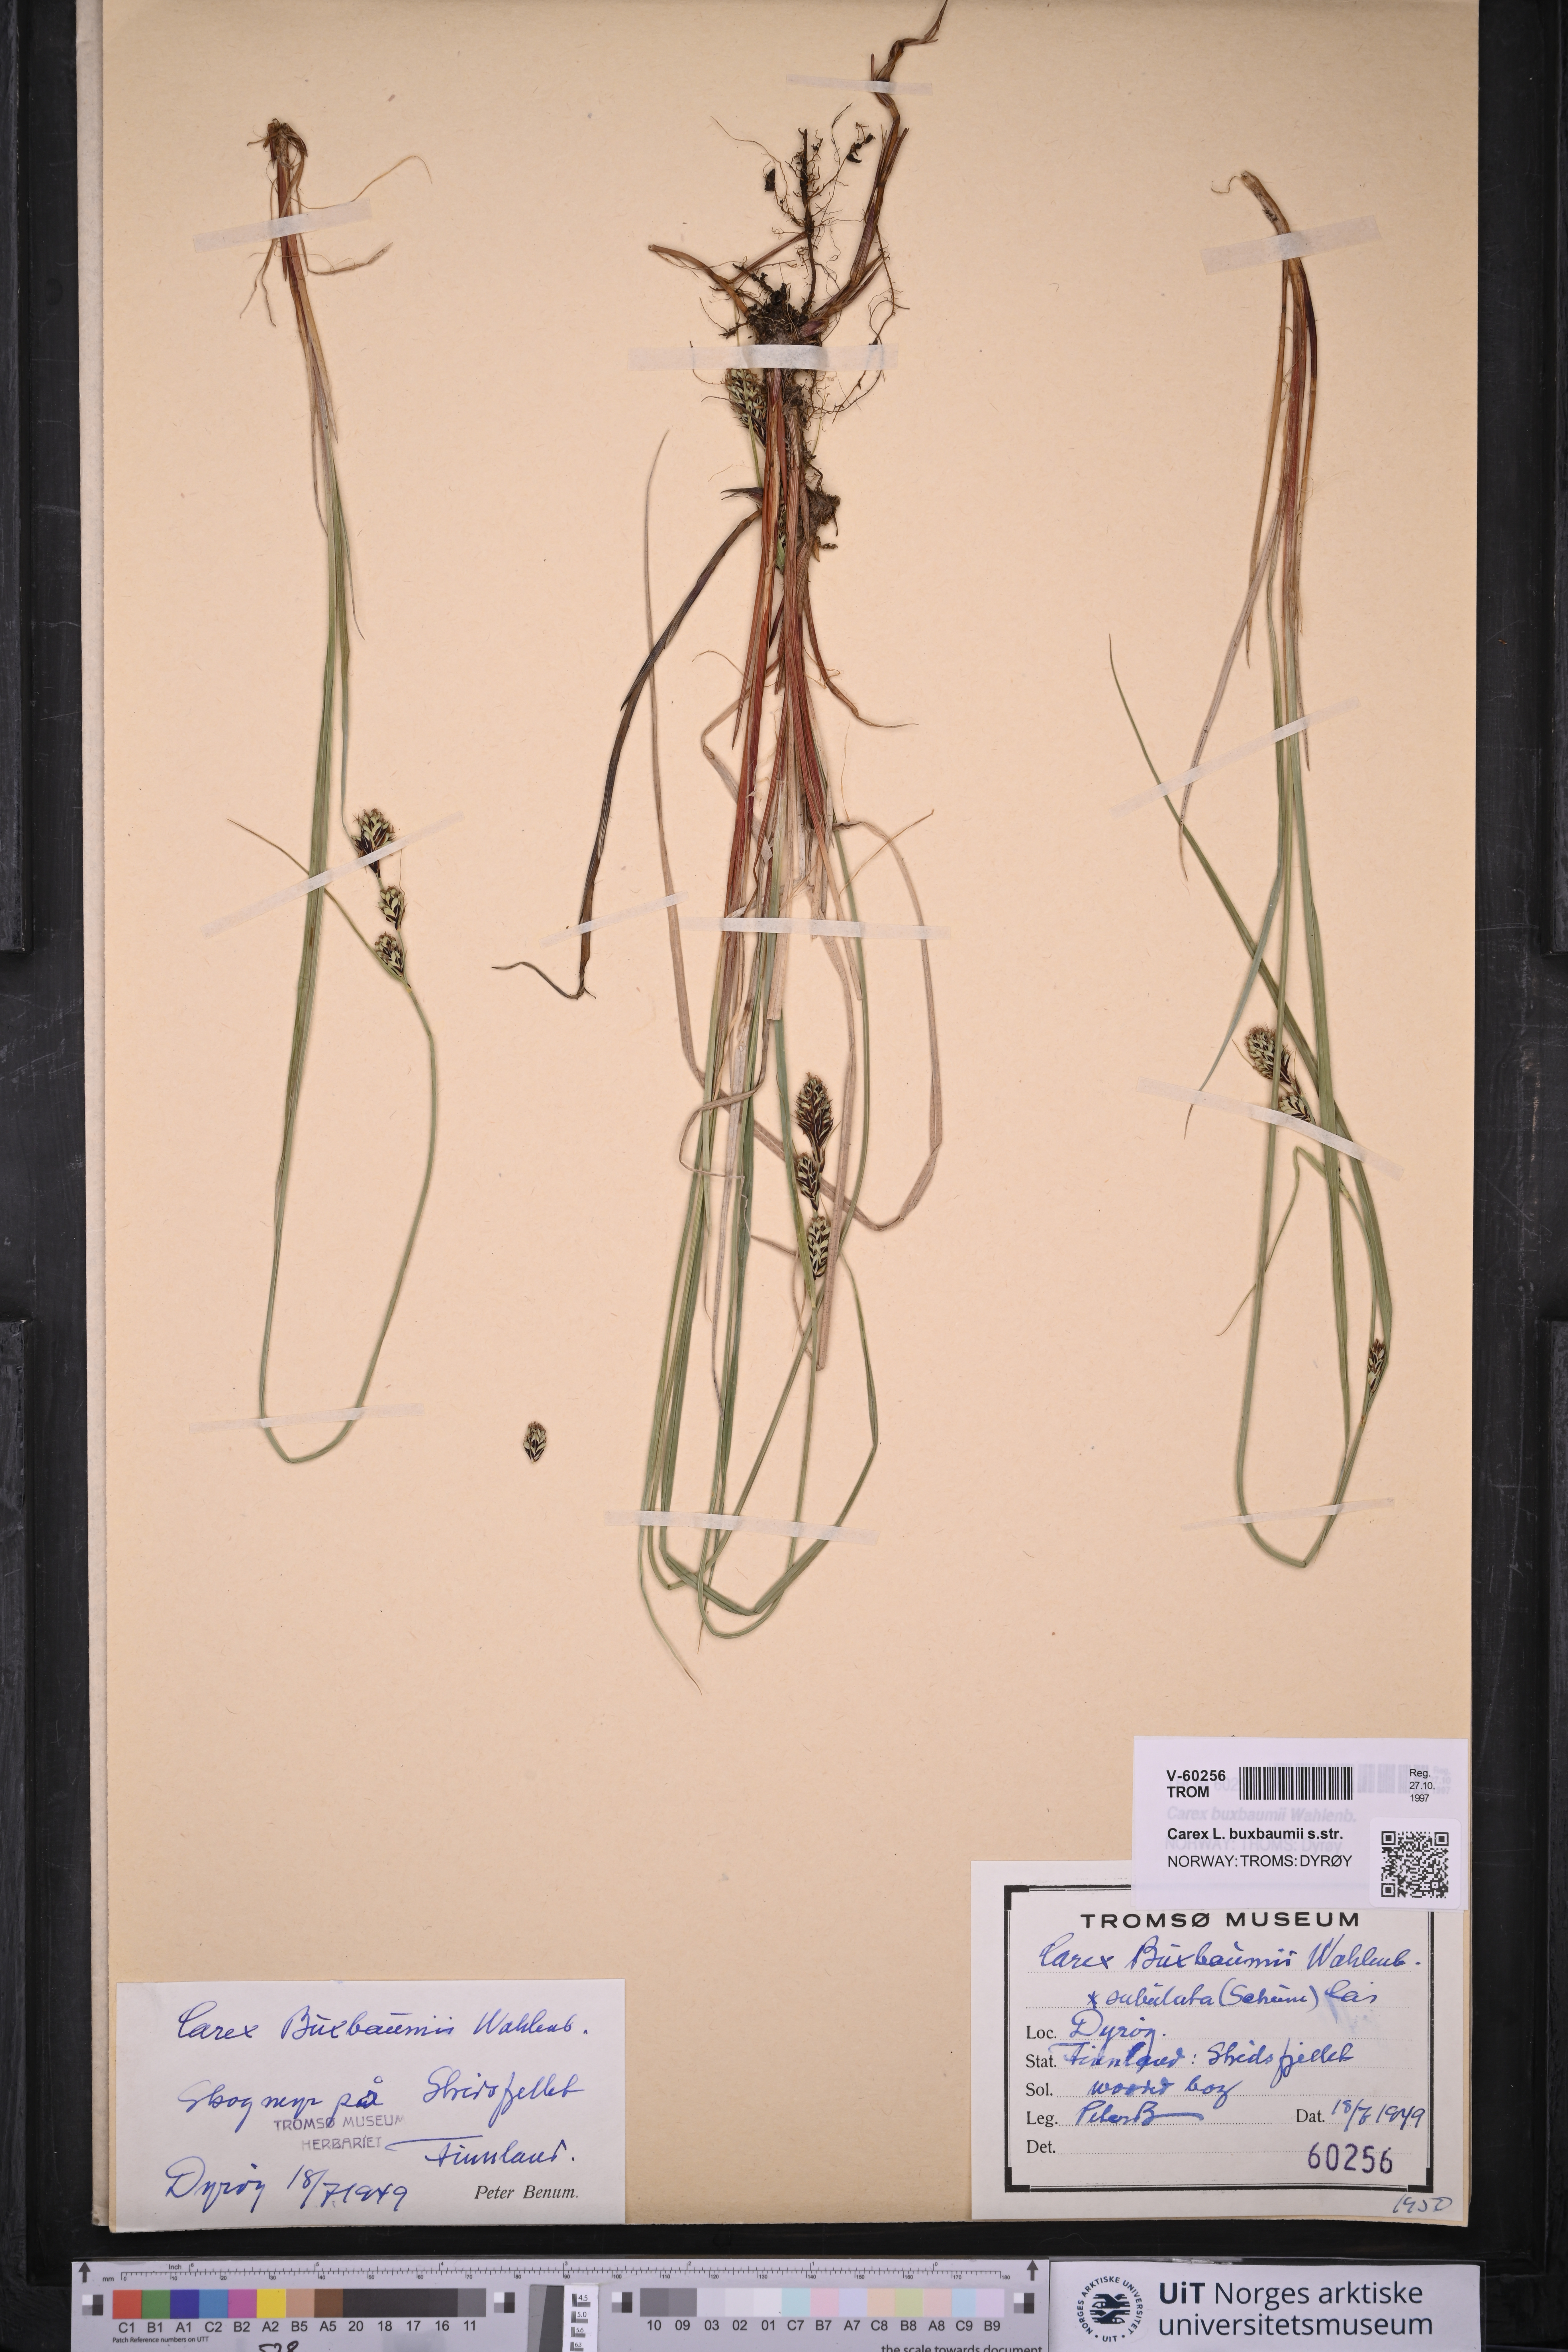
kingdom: Plantae
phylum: Tracheophyta
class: Liliopsida
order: Poales
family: Cyperaceae
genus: Carex
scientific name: Carex buxbaumii
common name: Club sedge
